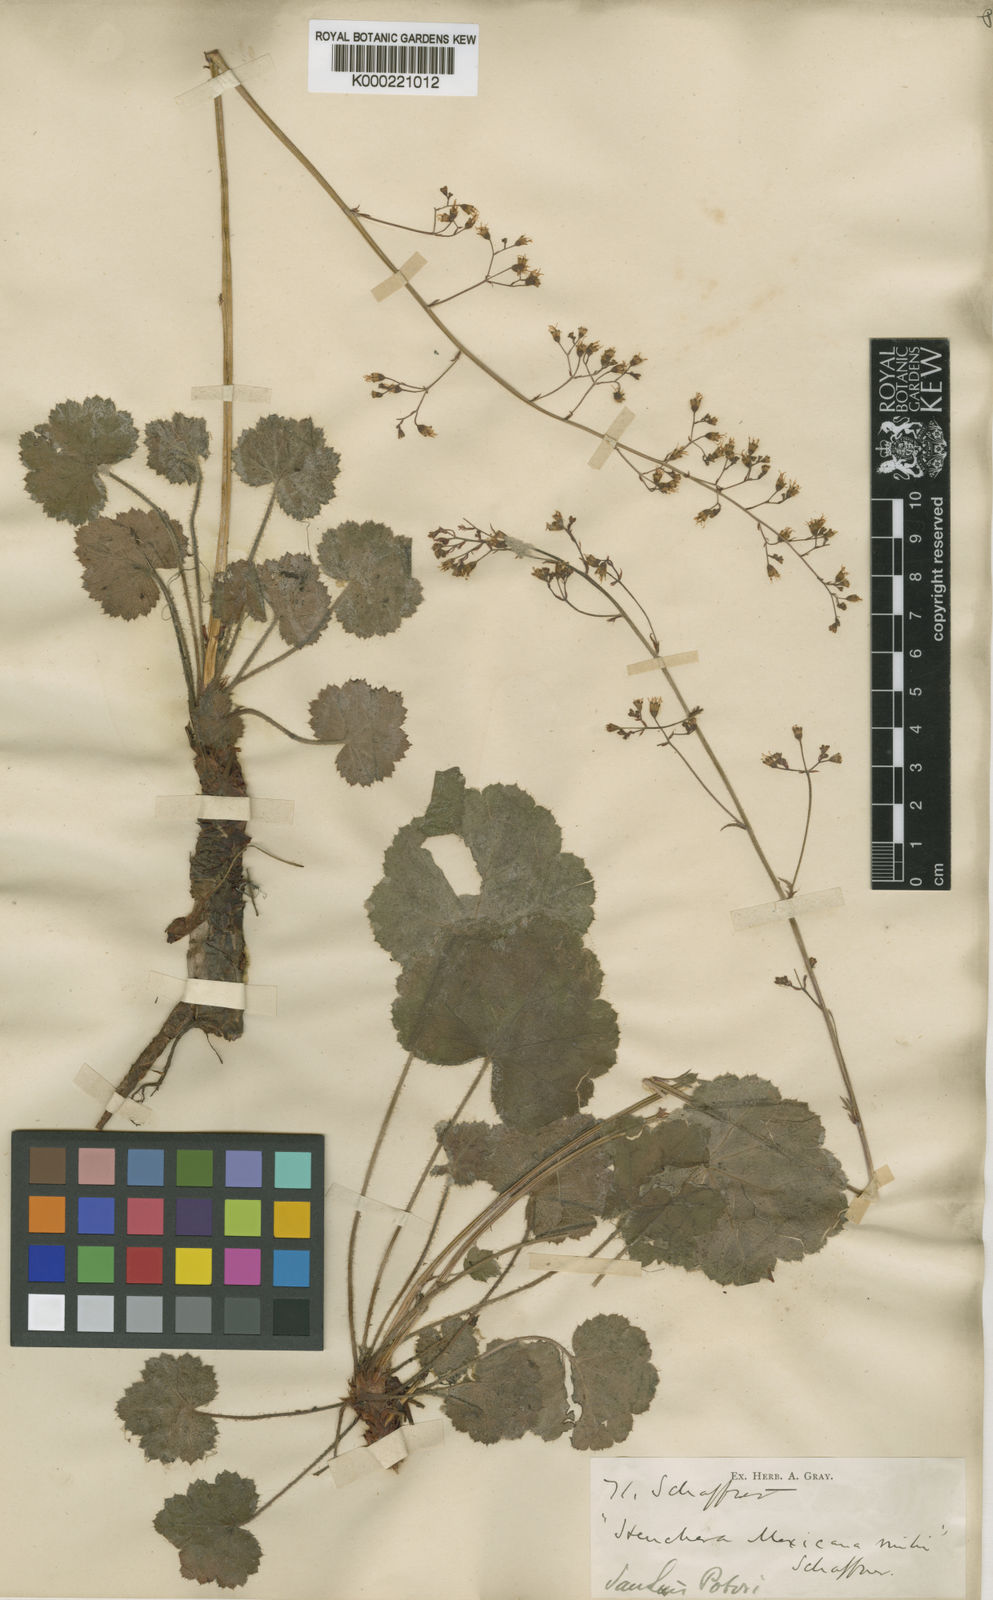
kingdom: Plantae
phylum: Tracheophyta
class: Magnoliopsida
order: Saxifragales
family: Saxifragaceae
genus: Heuchera
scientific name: Heuchera mexicana
